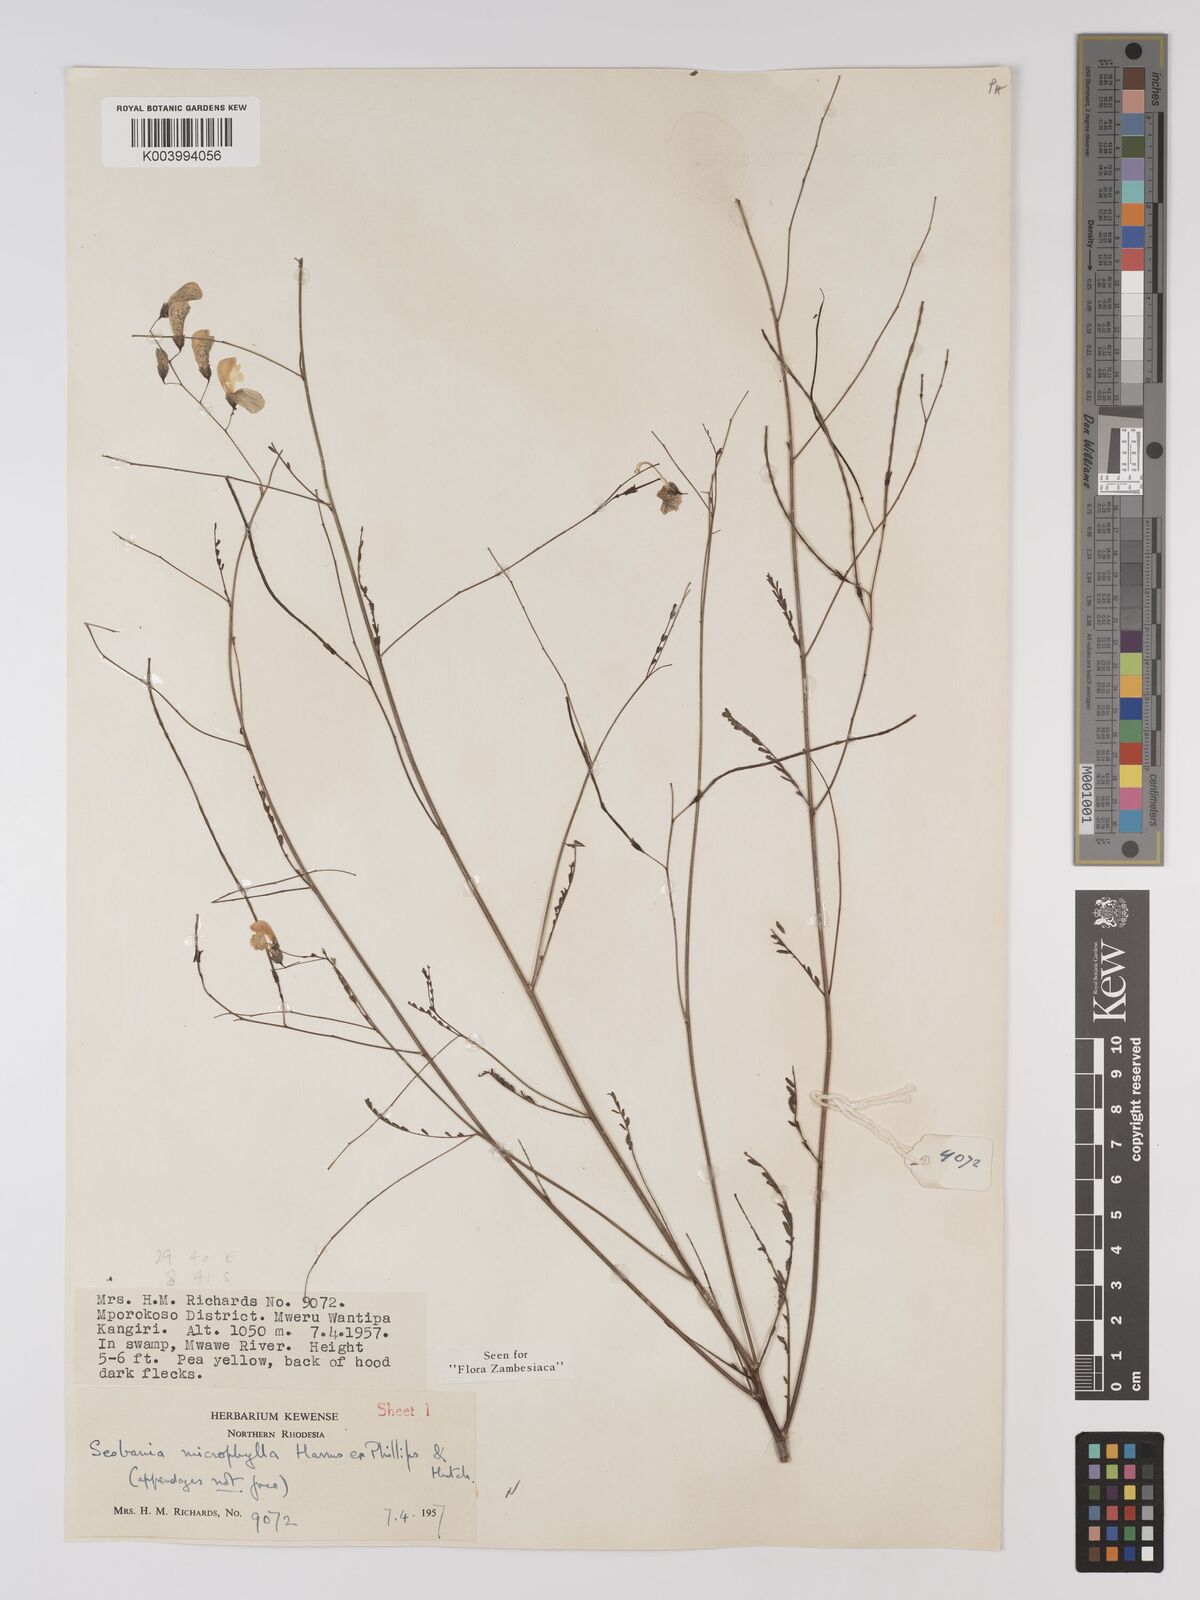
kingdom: Plantae
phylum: Tracheophyta
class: Magnoliopsida
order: Fabales
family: Fabaceae
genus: Sesbania
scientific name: Sesbania microphylla
